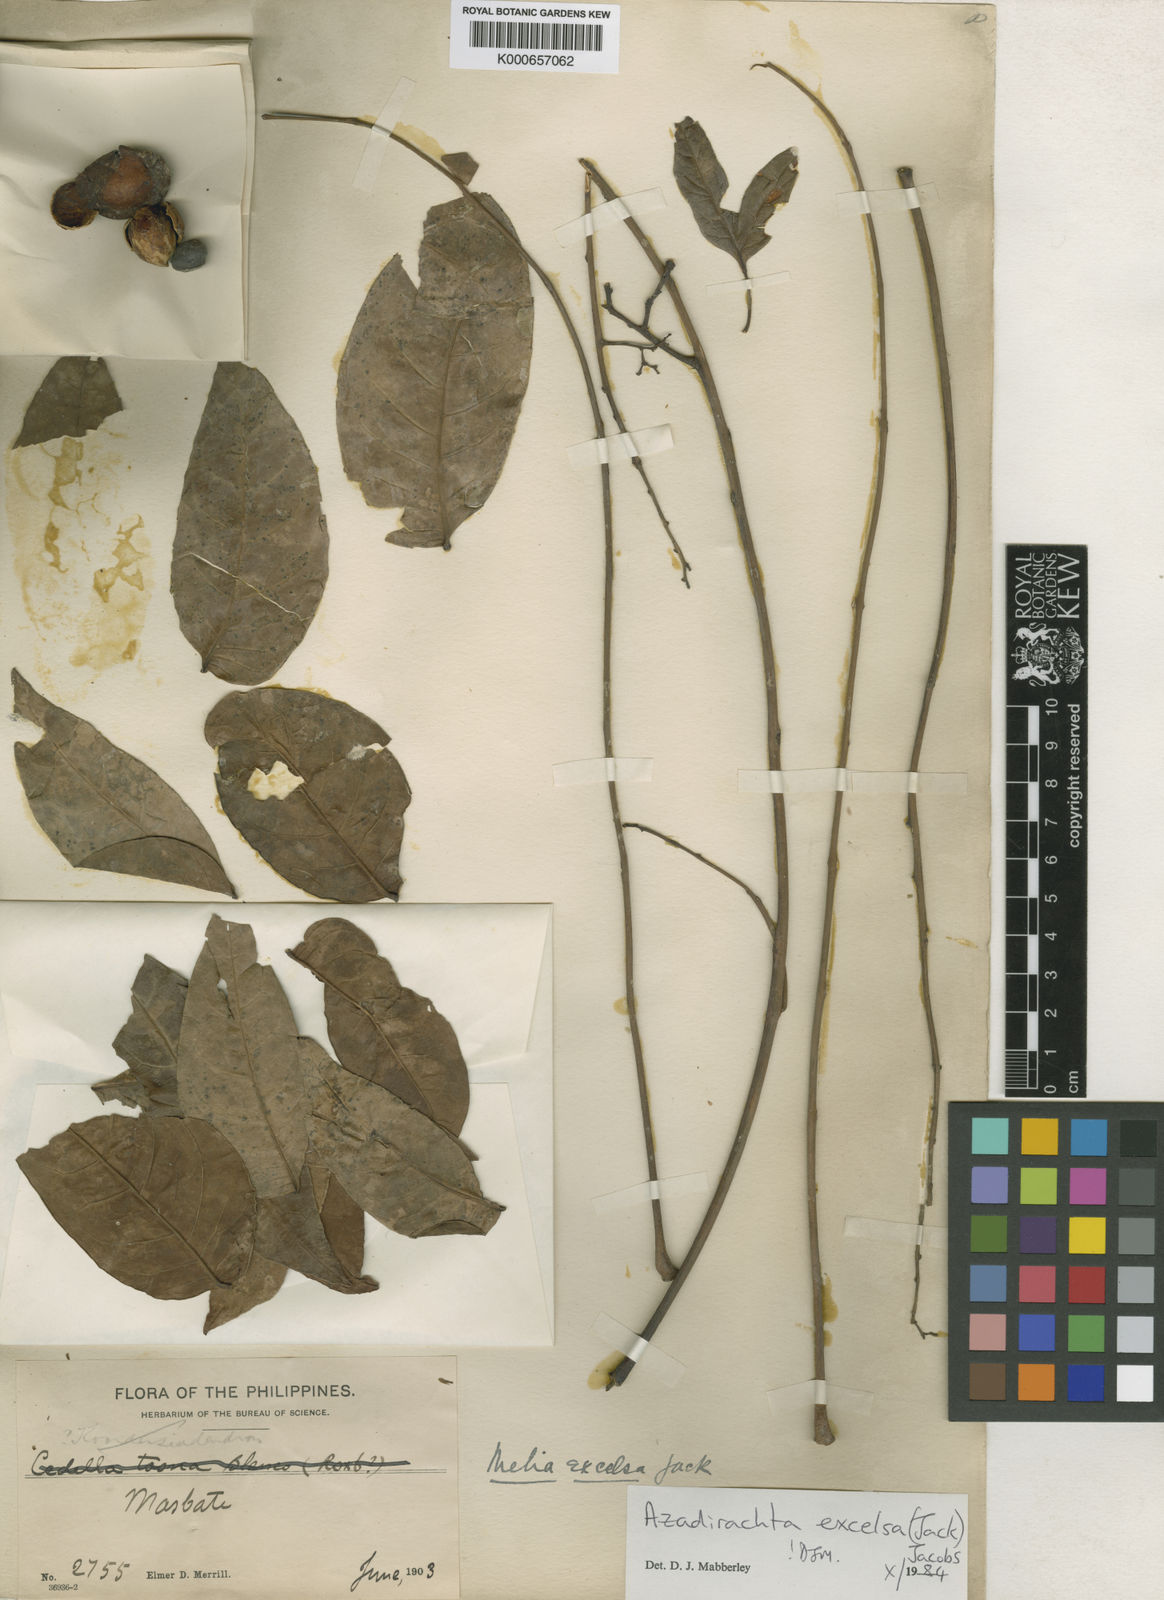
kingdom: Plantae
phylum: Tracheophyta
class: Magnoliopsida
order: Sapindales
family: Meliaceae
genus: Azadirachta
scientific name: Azadirachta excelsa
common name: Neem tree
